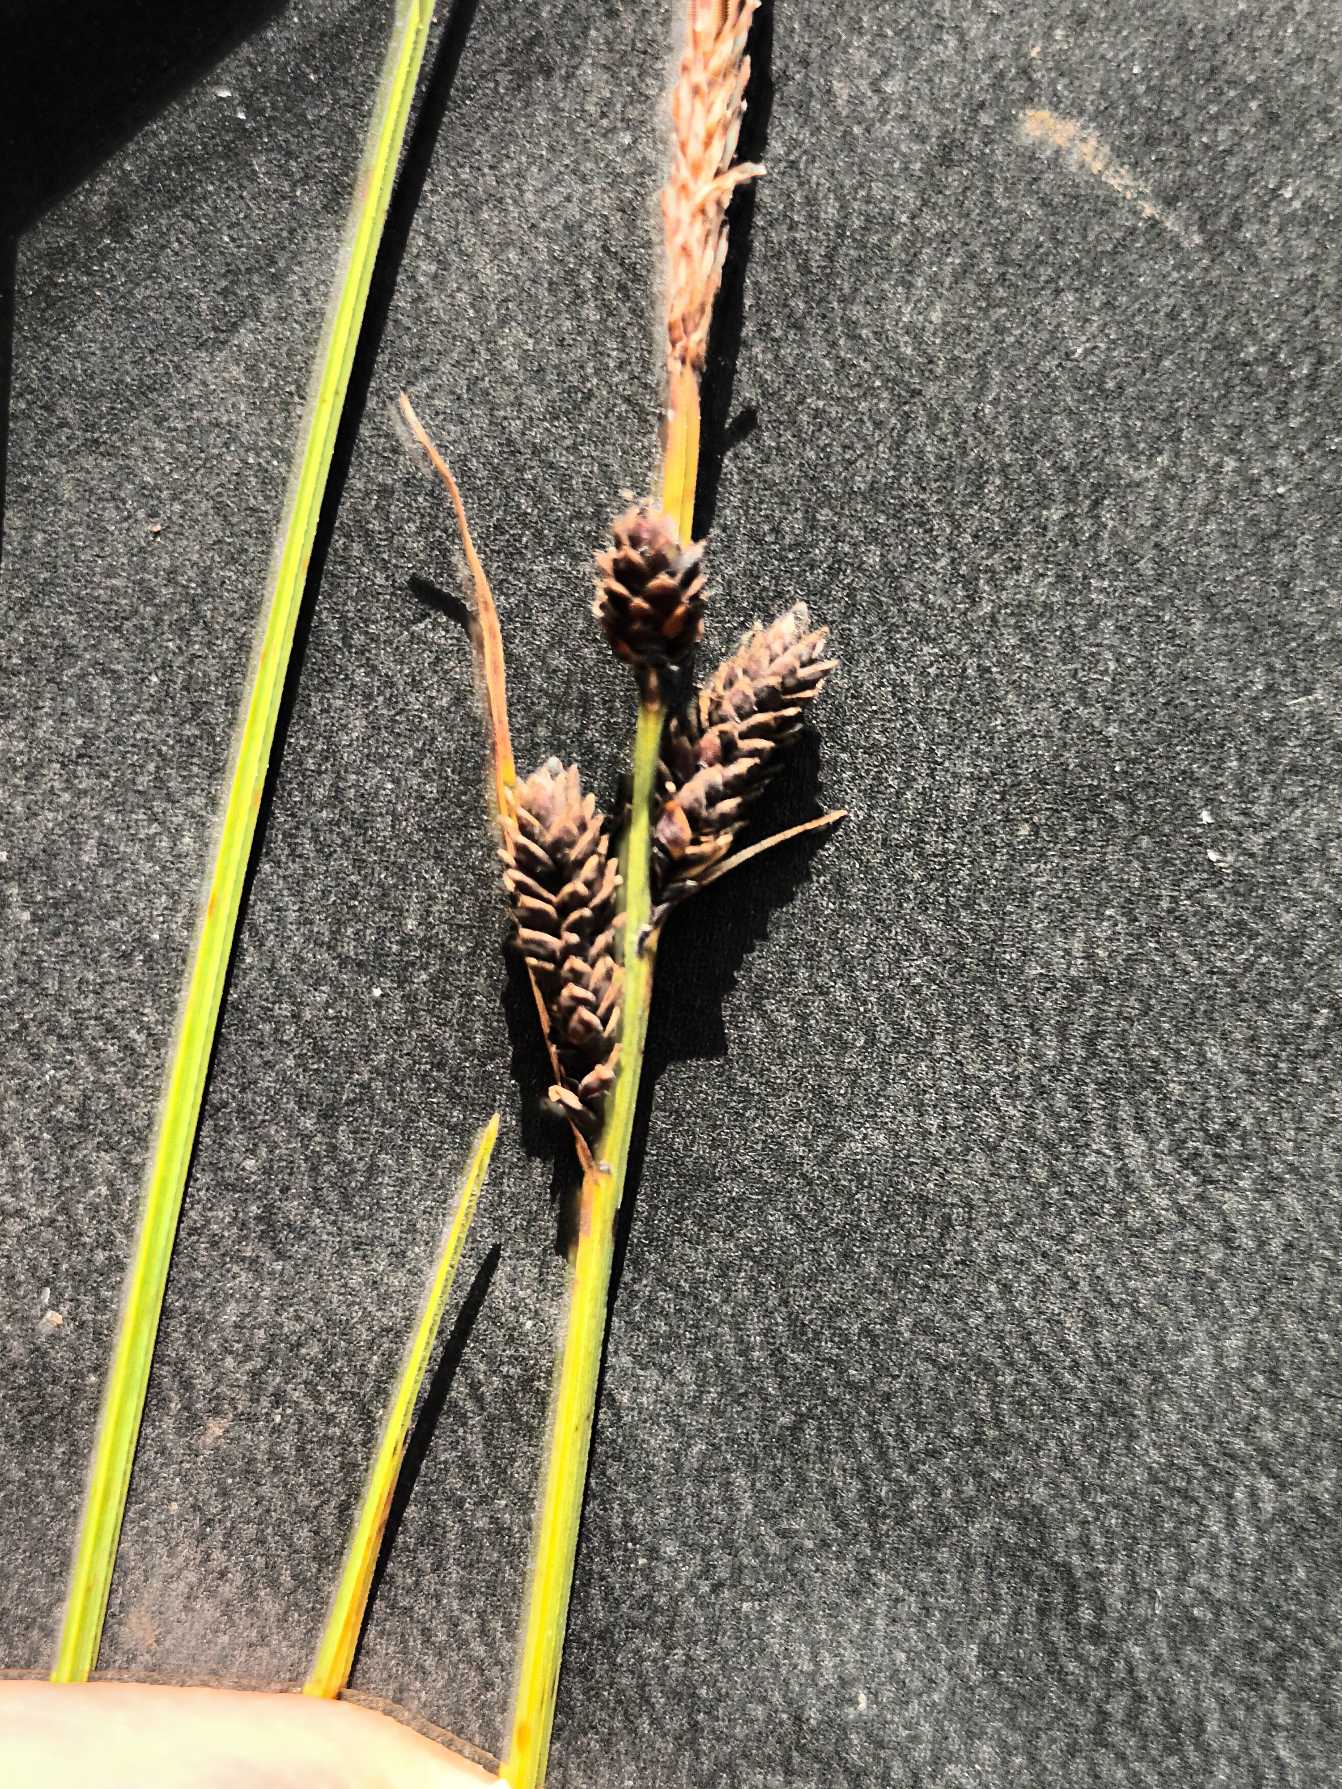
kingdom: Plantae
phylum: Tracheophyta
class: Liliopsida
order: Poales
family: Cyperaceae
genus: Carex
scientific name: Carex nigra
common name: Almindelig star
